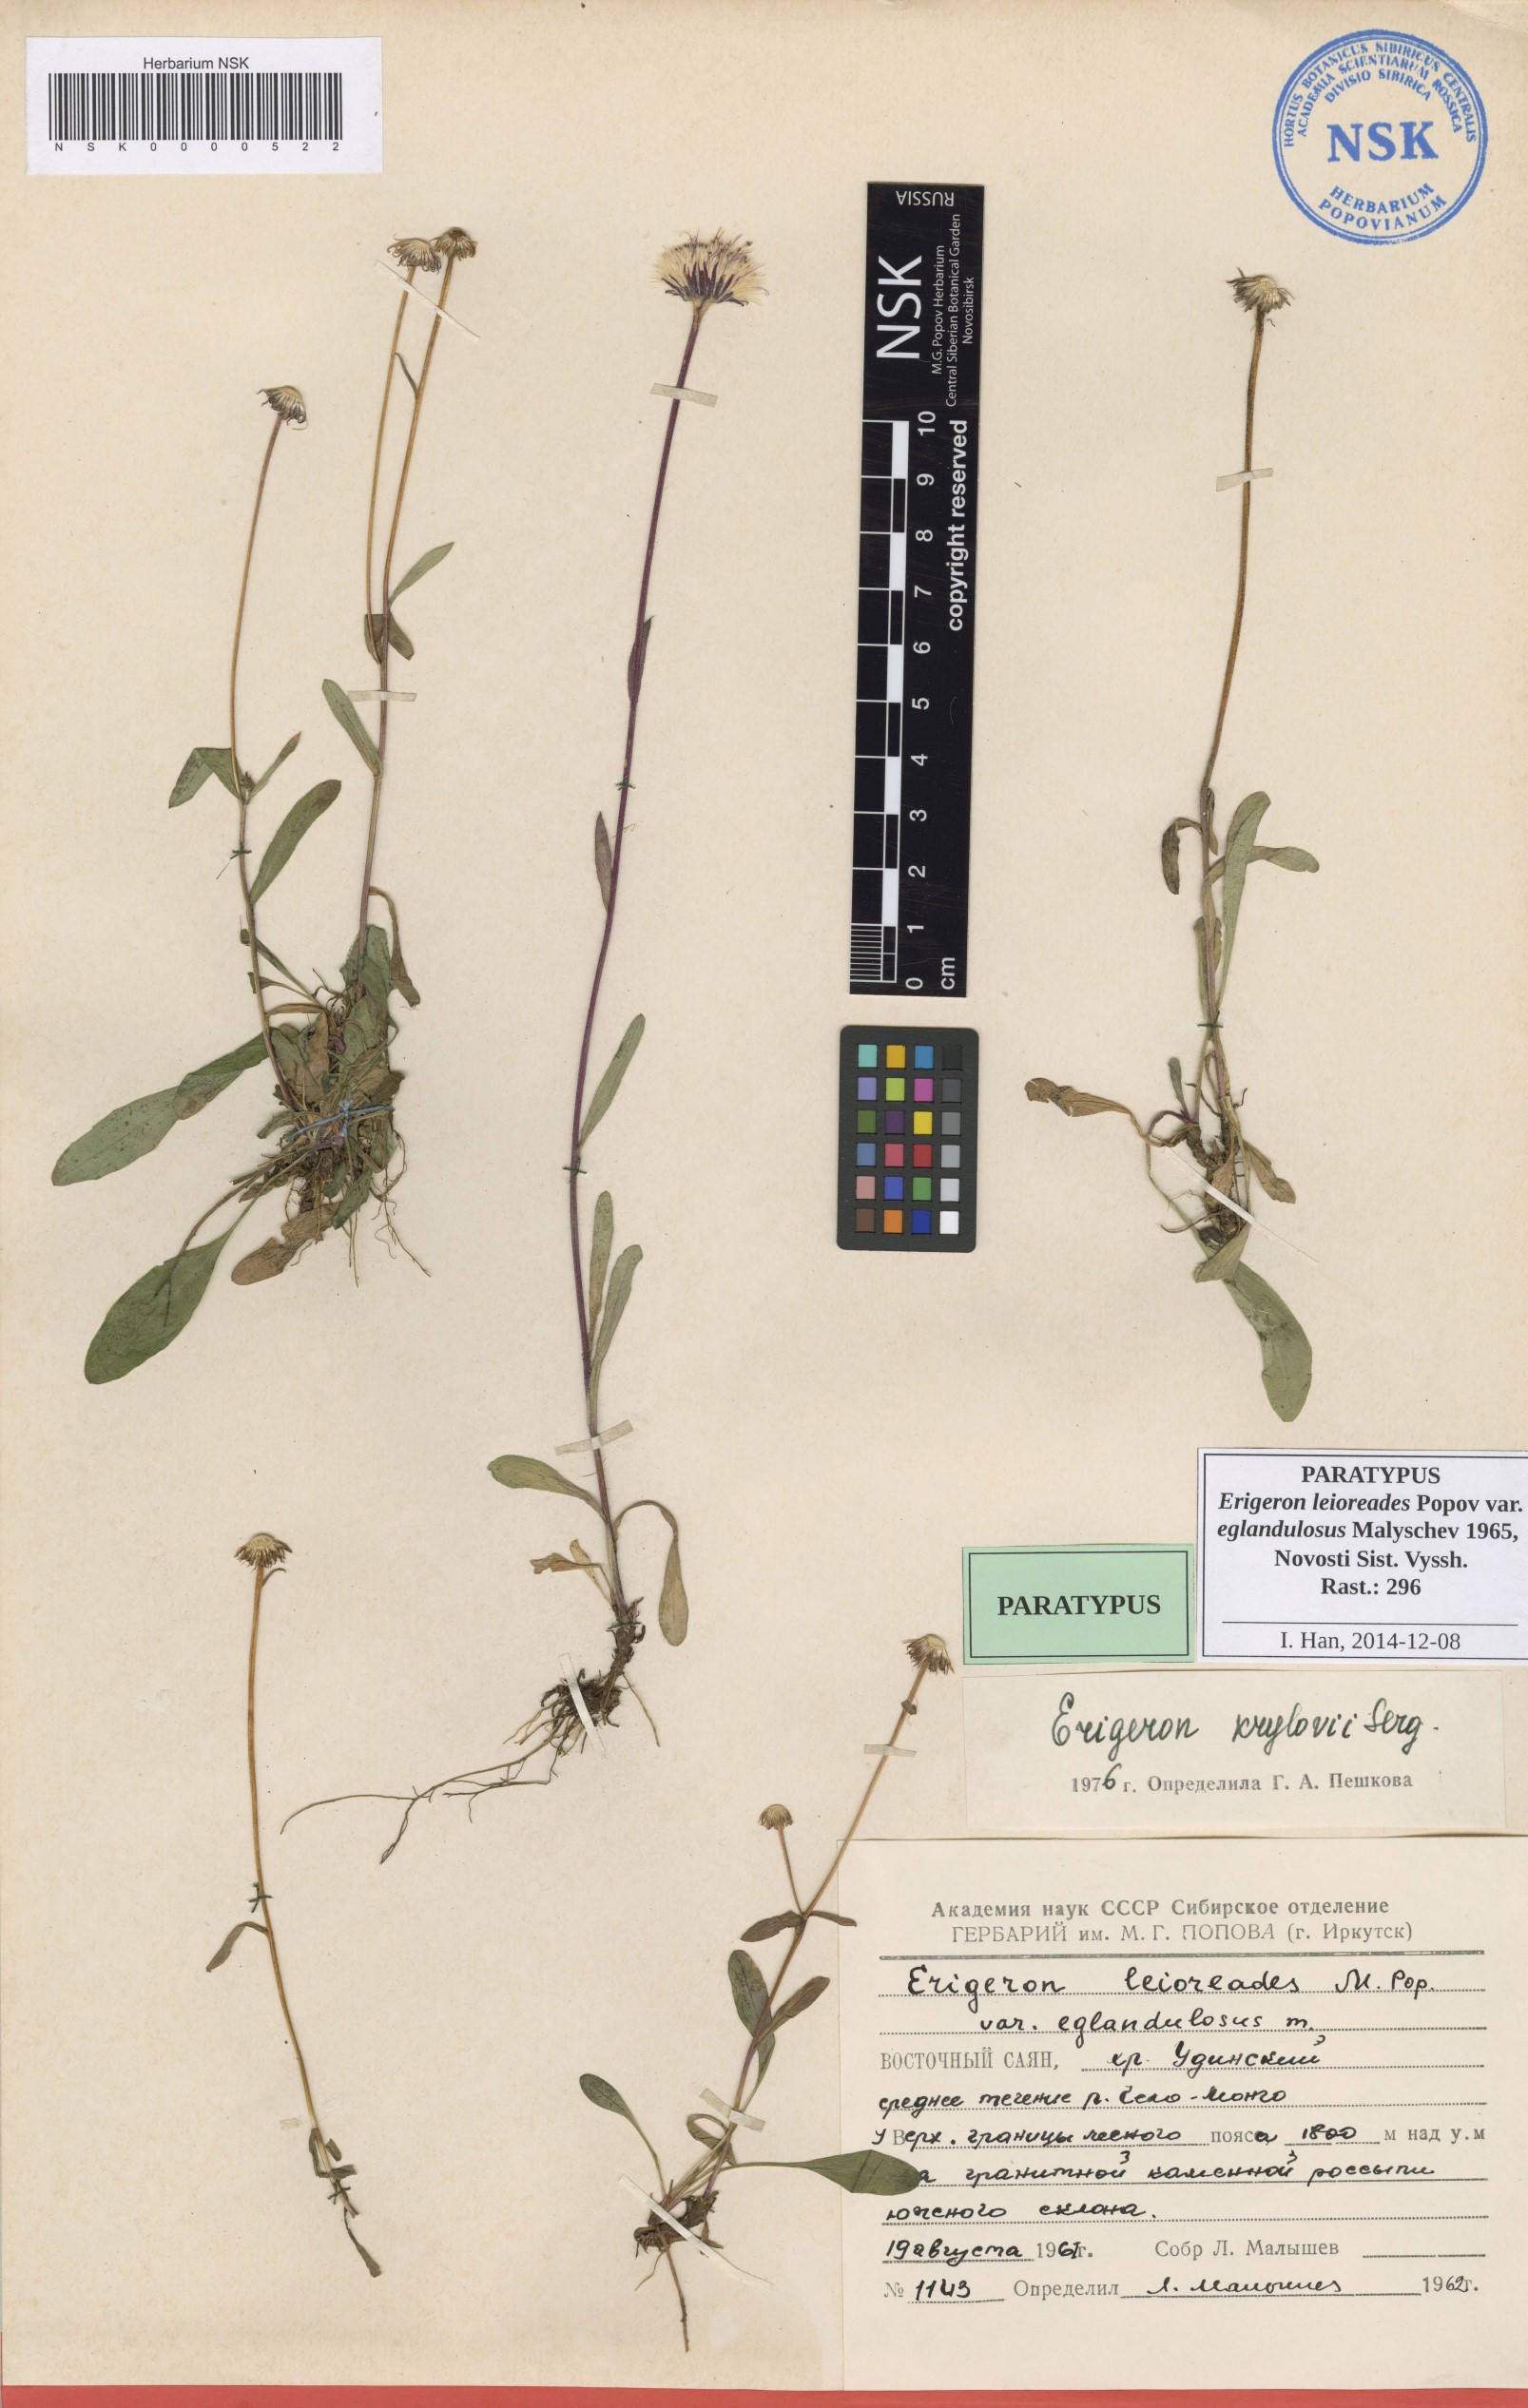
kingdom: Plantae
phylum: Tracheophyta
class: Magnoliopsida
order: Asterales
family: Asteraceae
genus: Erigeron
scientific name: Erigeron leioreades
